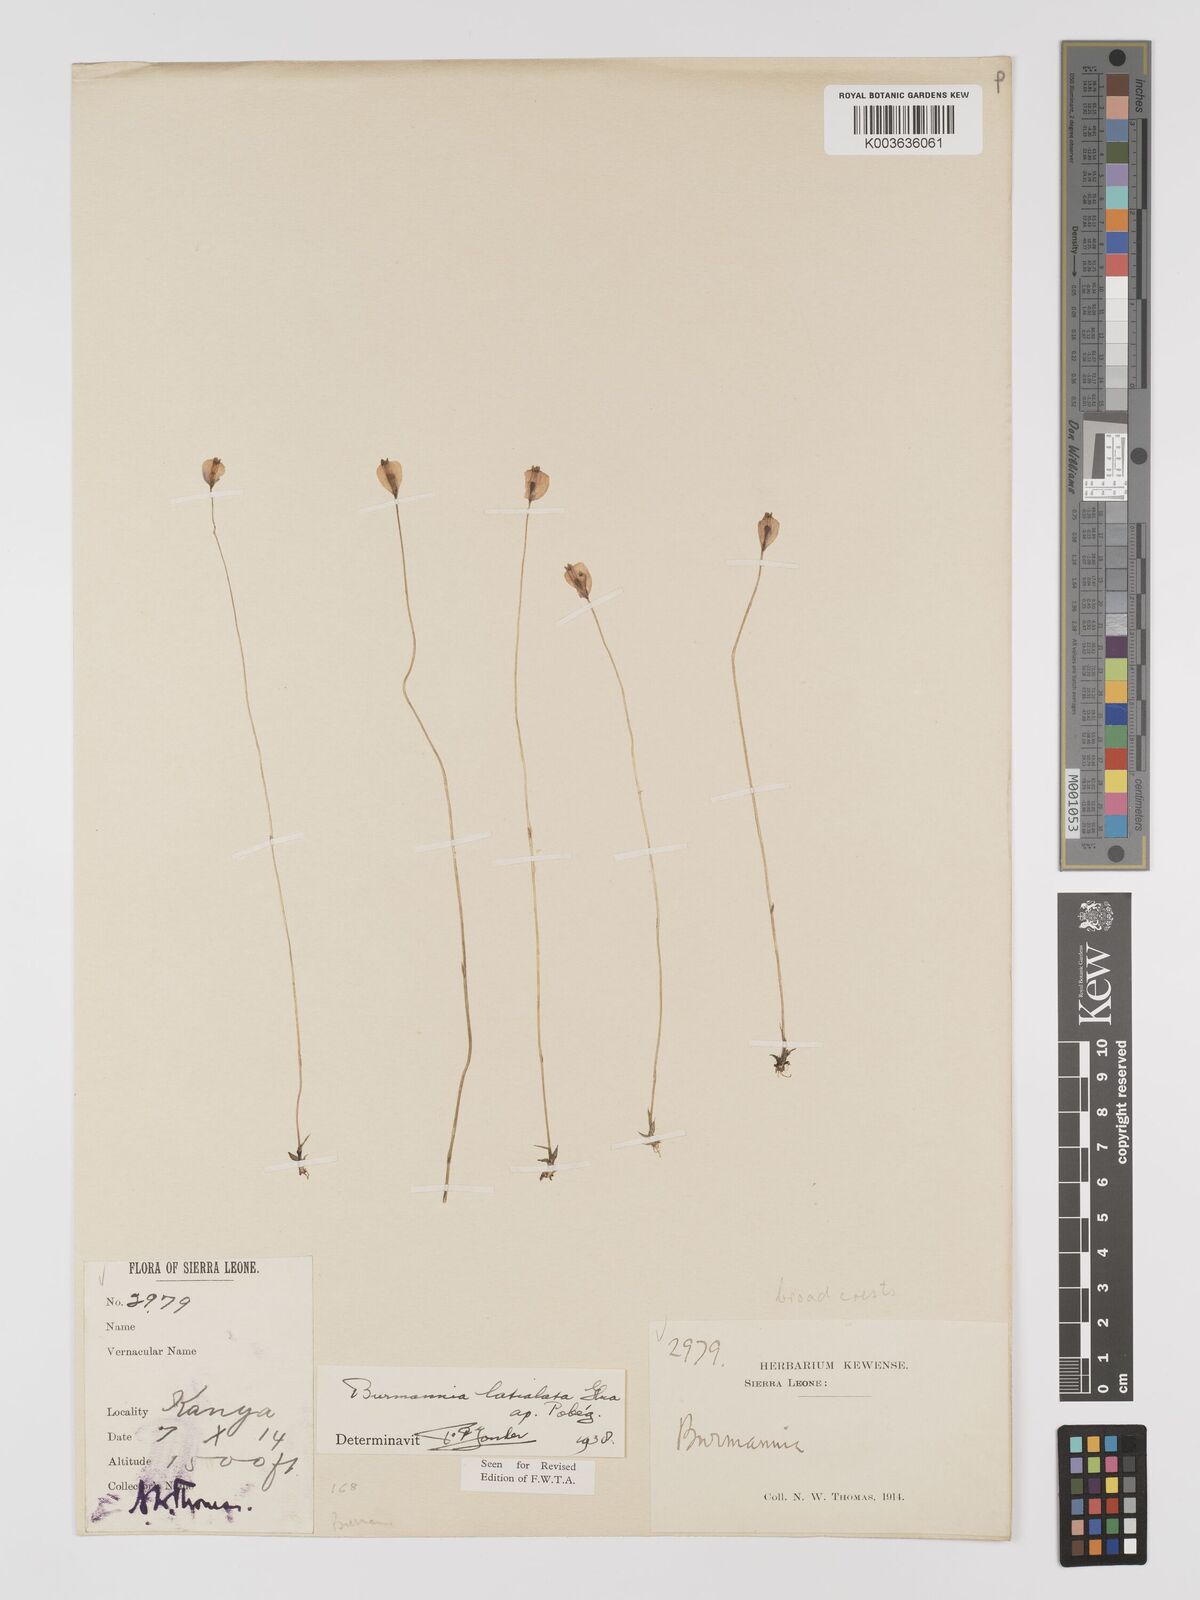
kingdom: Plantae
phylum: Tracheophyta
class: Liliopsida
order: Dioscoreales
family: Burmanniaceae
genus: Burmannia
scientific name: Burmannia madagascariensis
